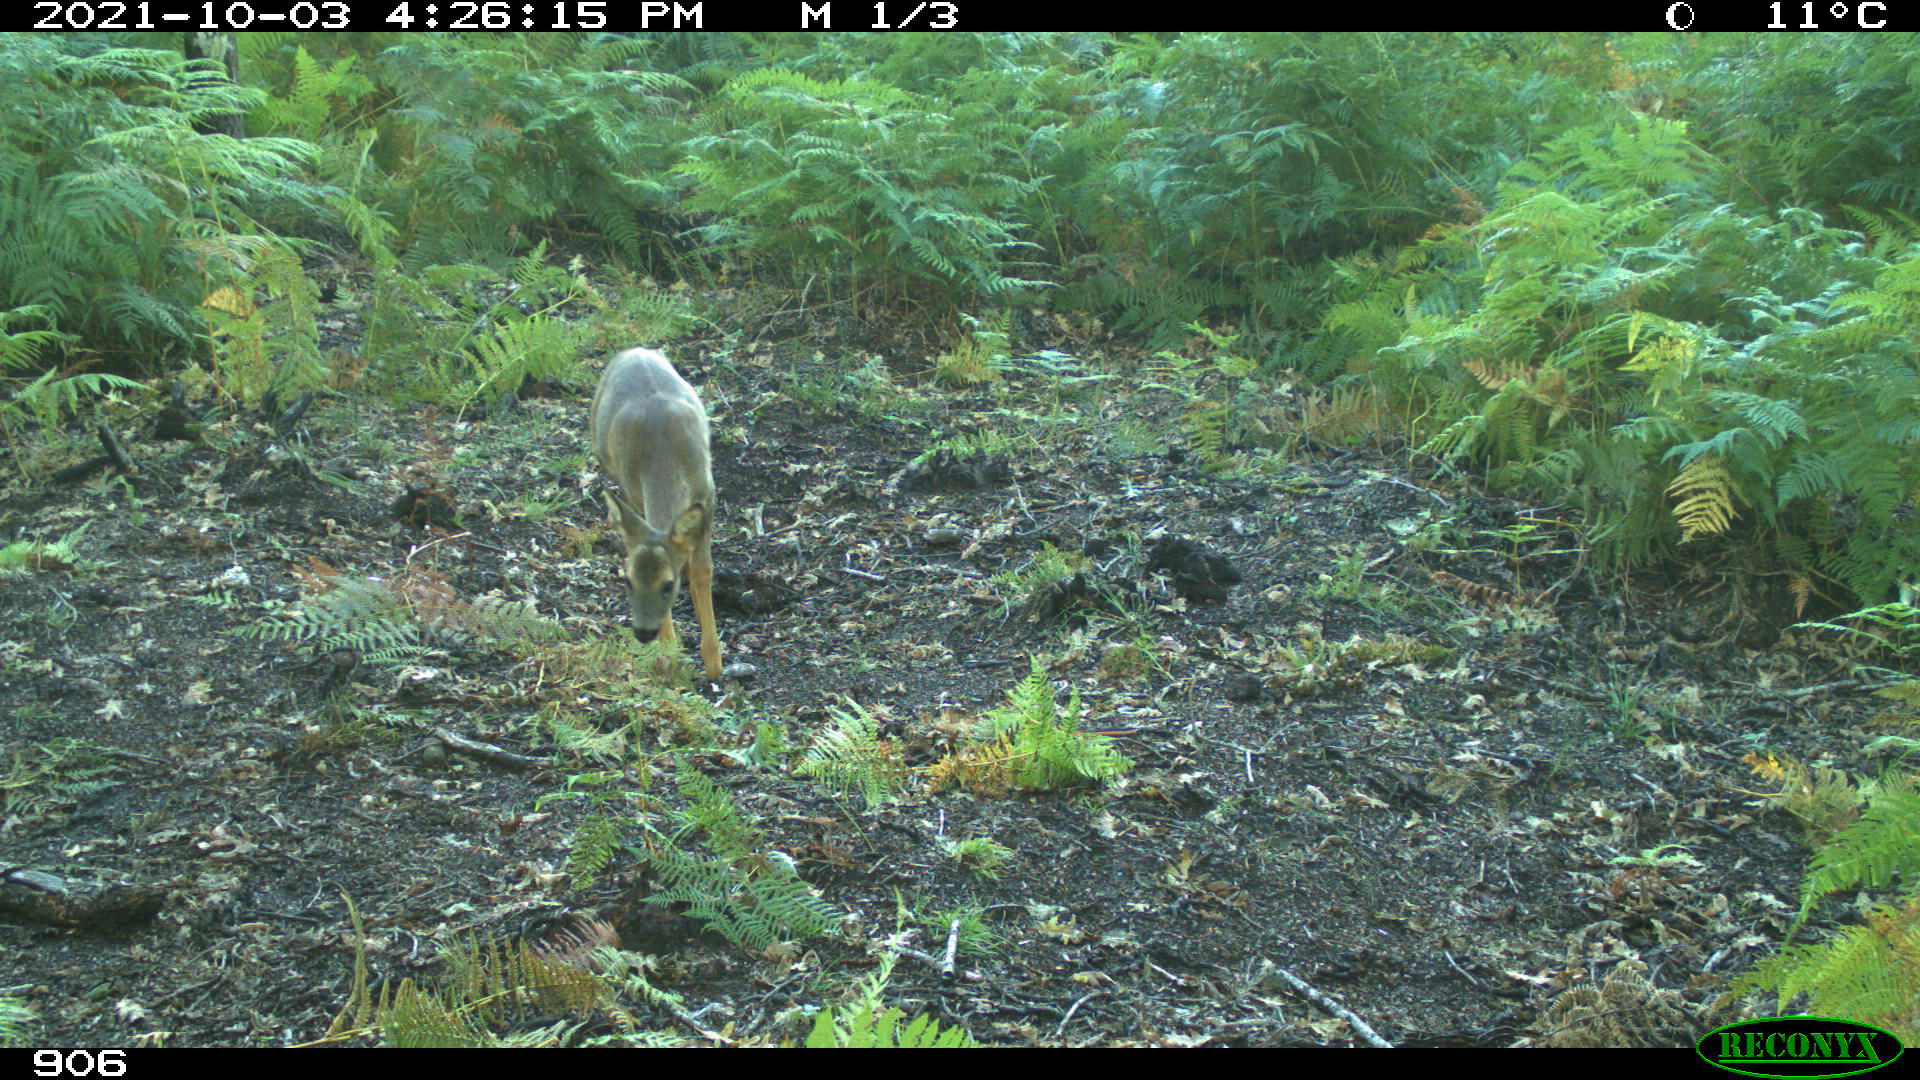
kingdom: Animalia
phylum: Chordata
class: Mammalia
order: Artiodactyla
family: Cervidae
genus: Capreolus
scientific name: Capreolus capreolus
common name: Western roe deer
